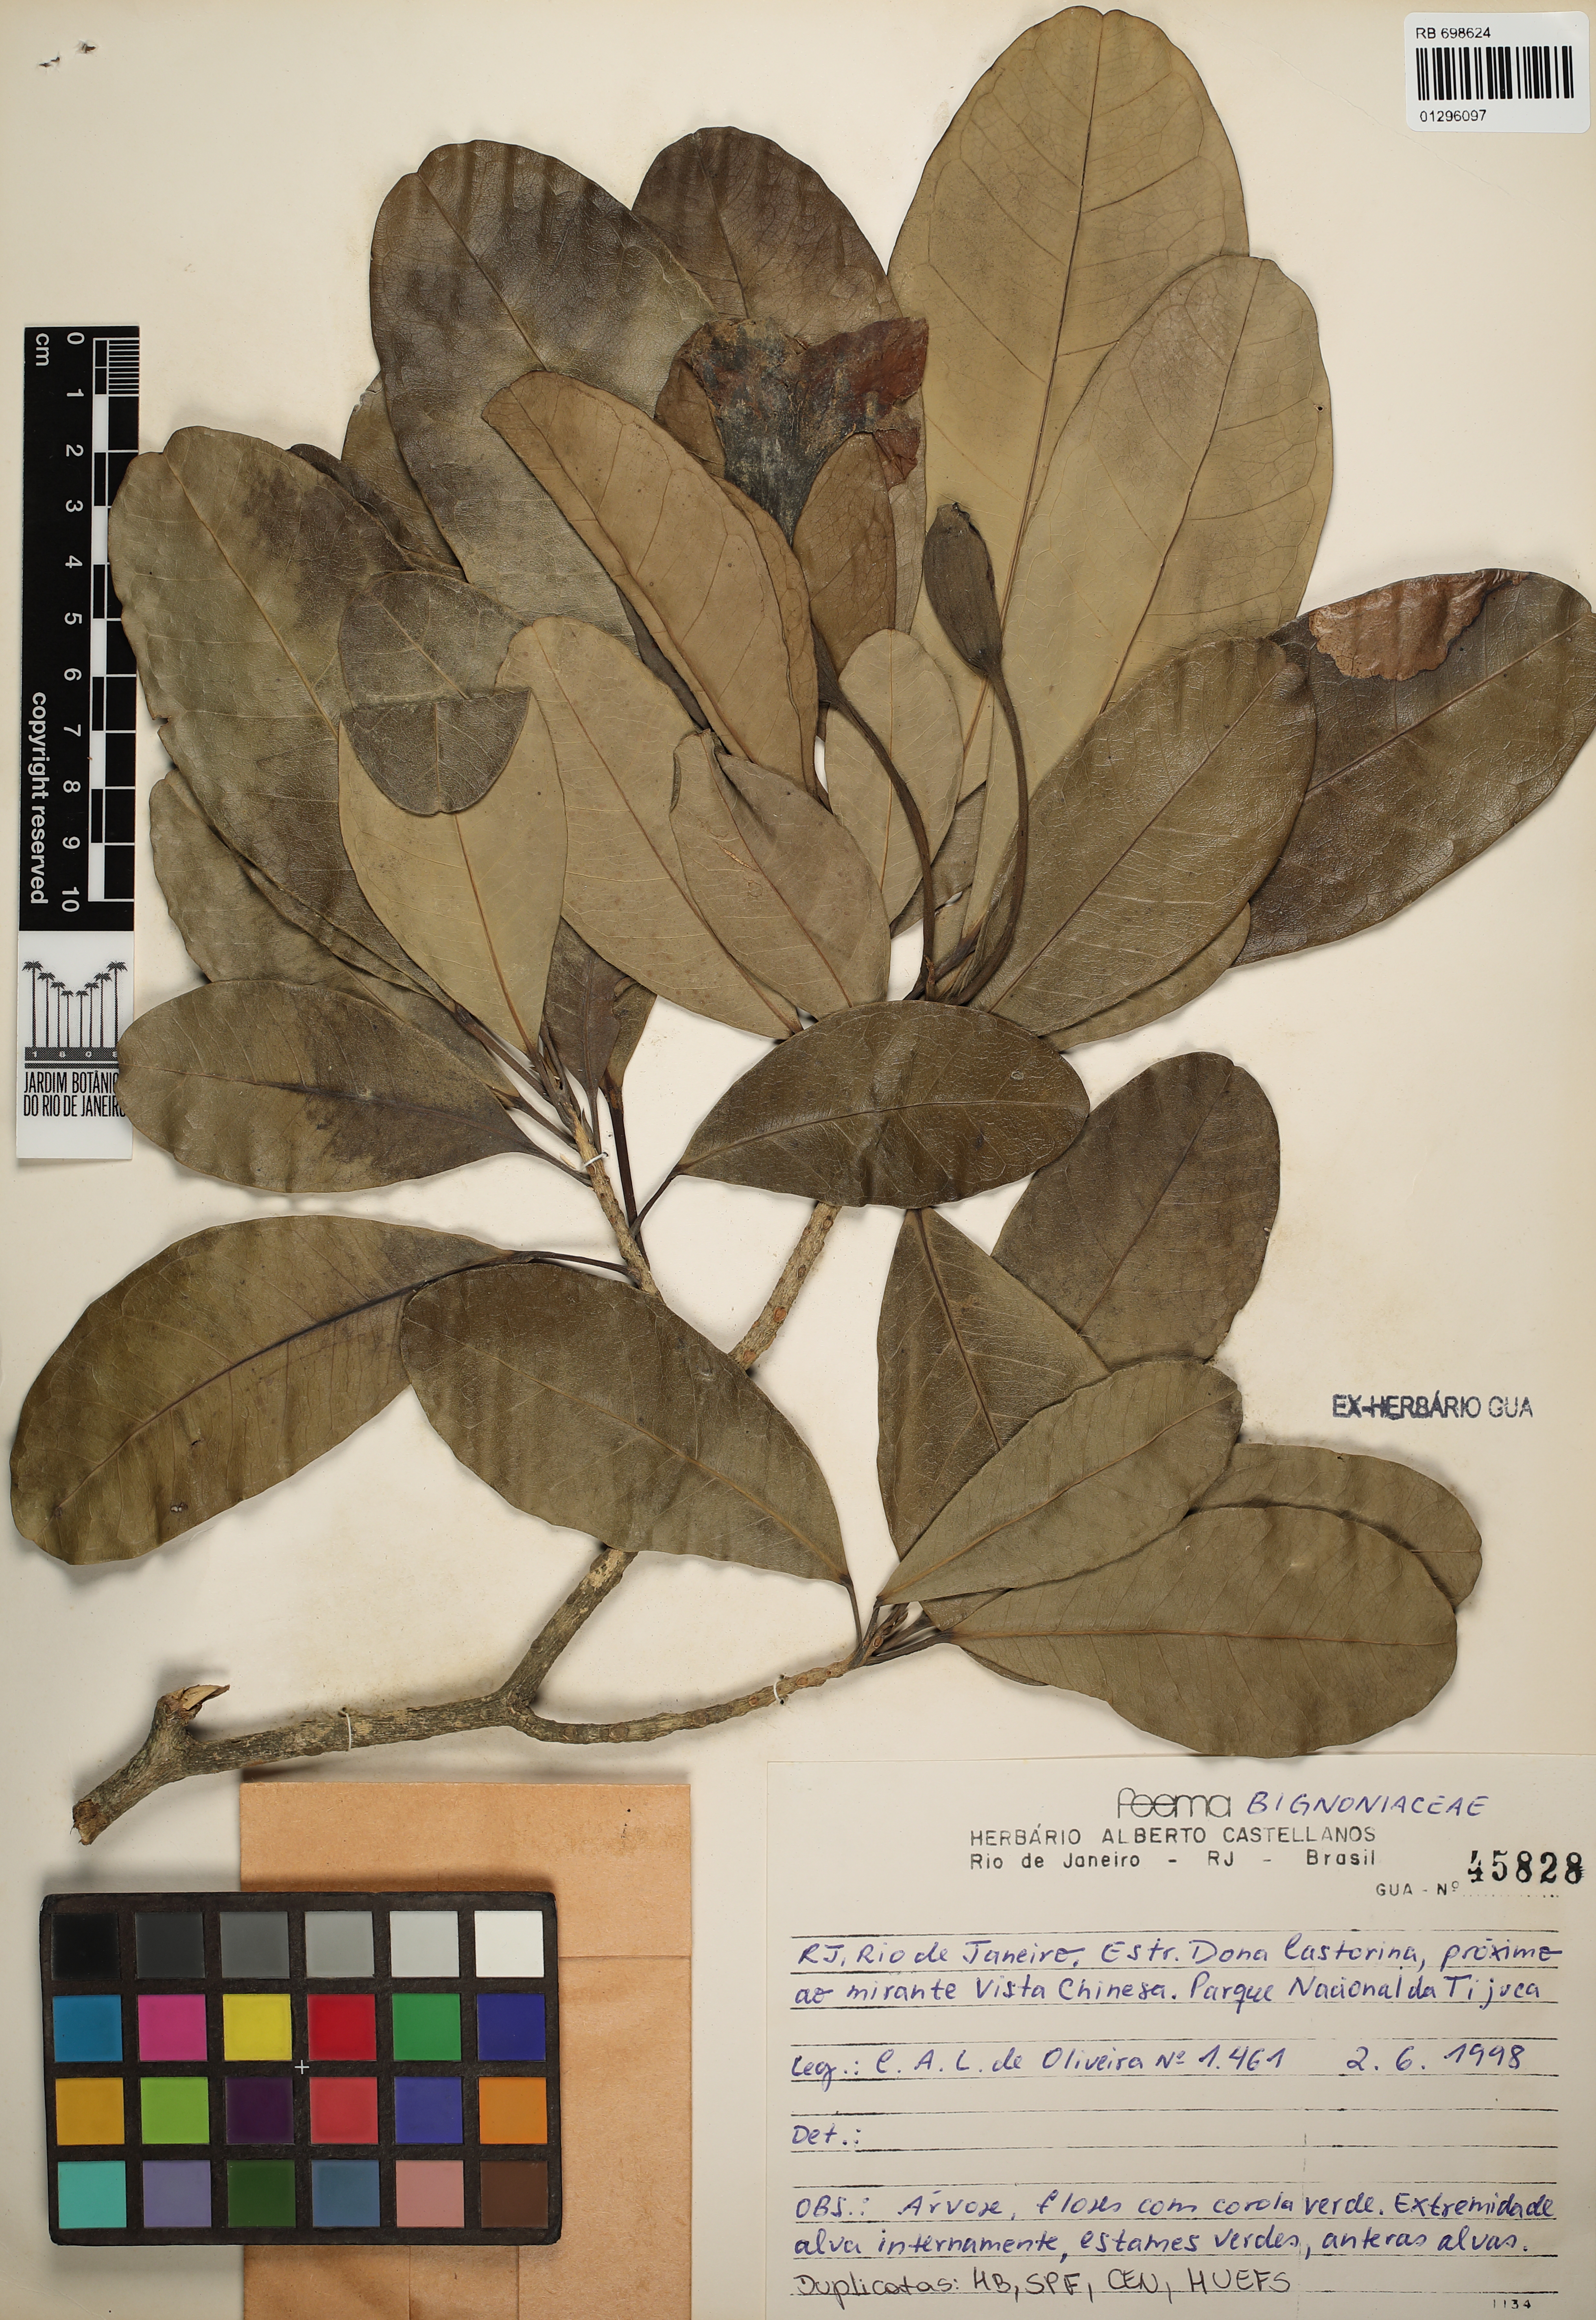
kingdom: Plantae
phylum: Tracheophyta
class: Magnoliopsida
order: Lamiales
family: Bignoniaceae
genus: Tabebuia
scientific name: Tabebuia
